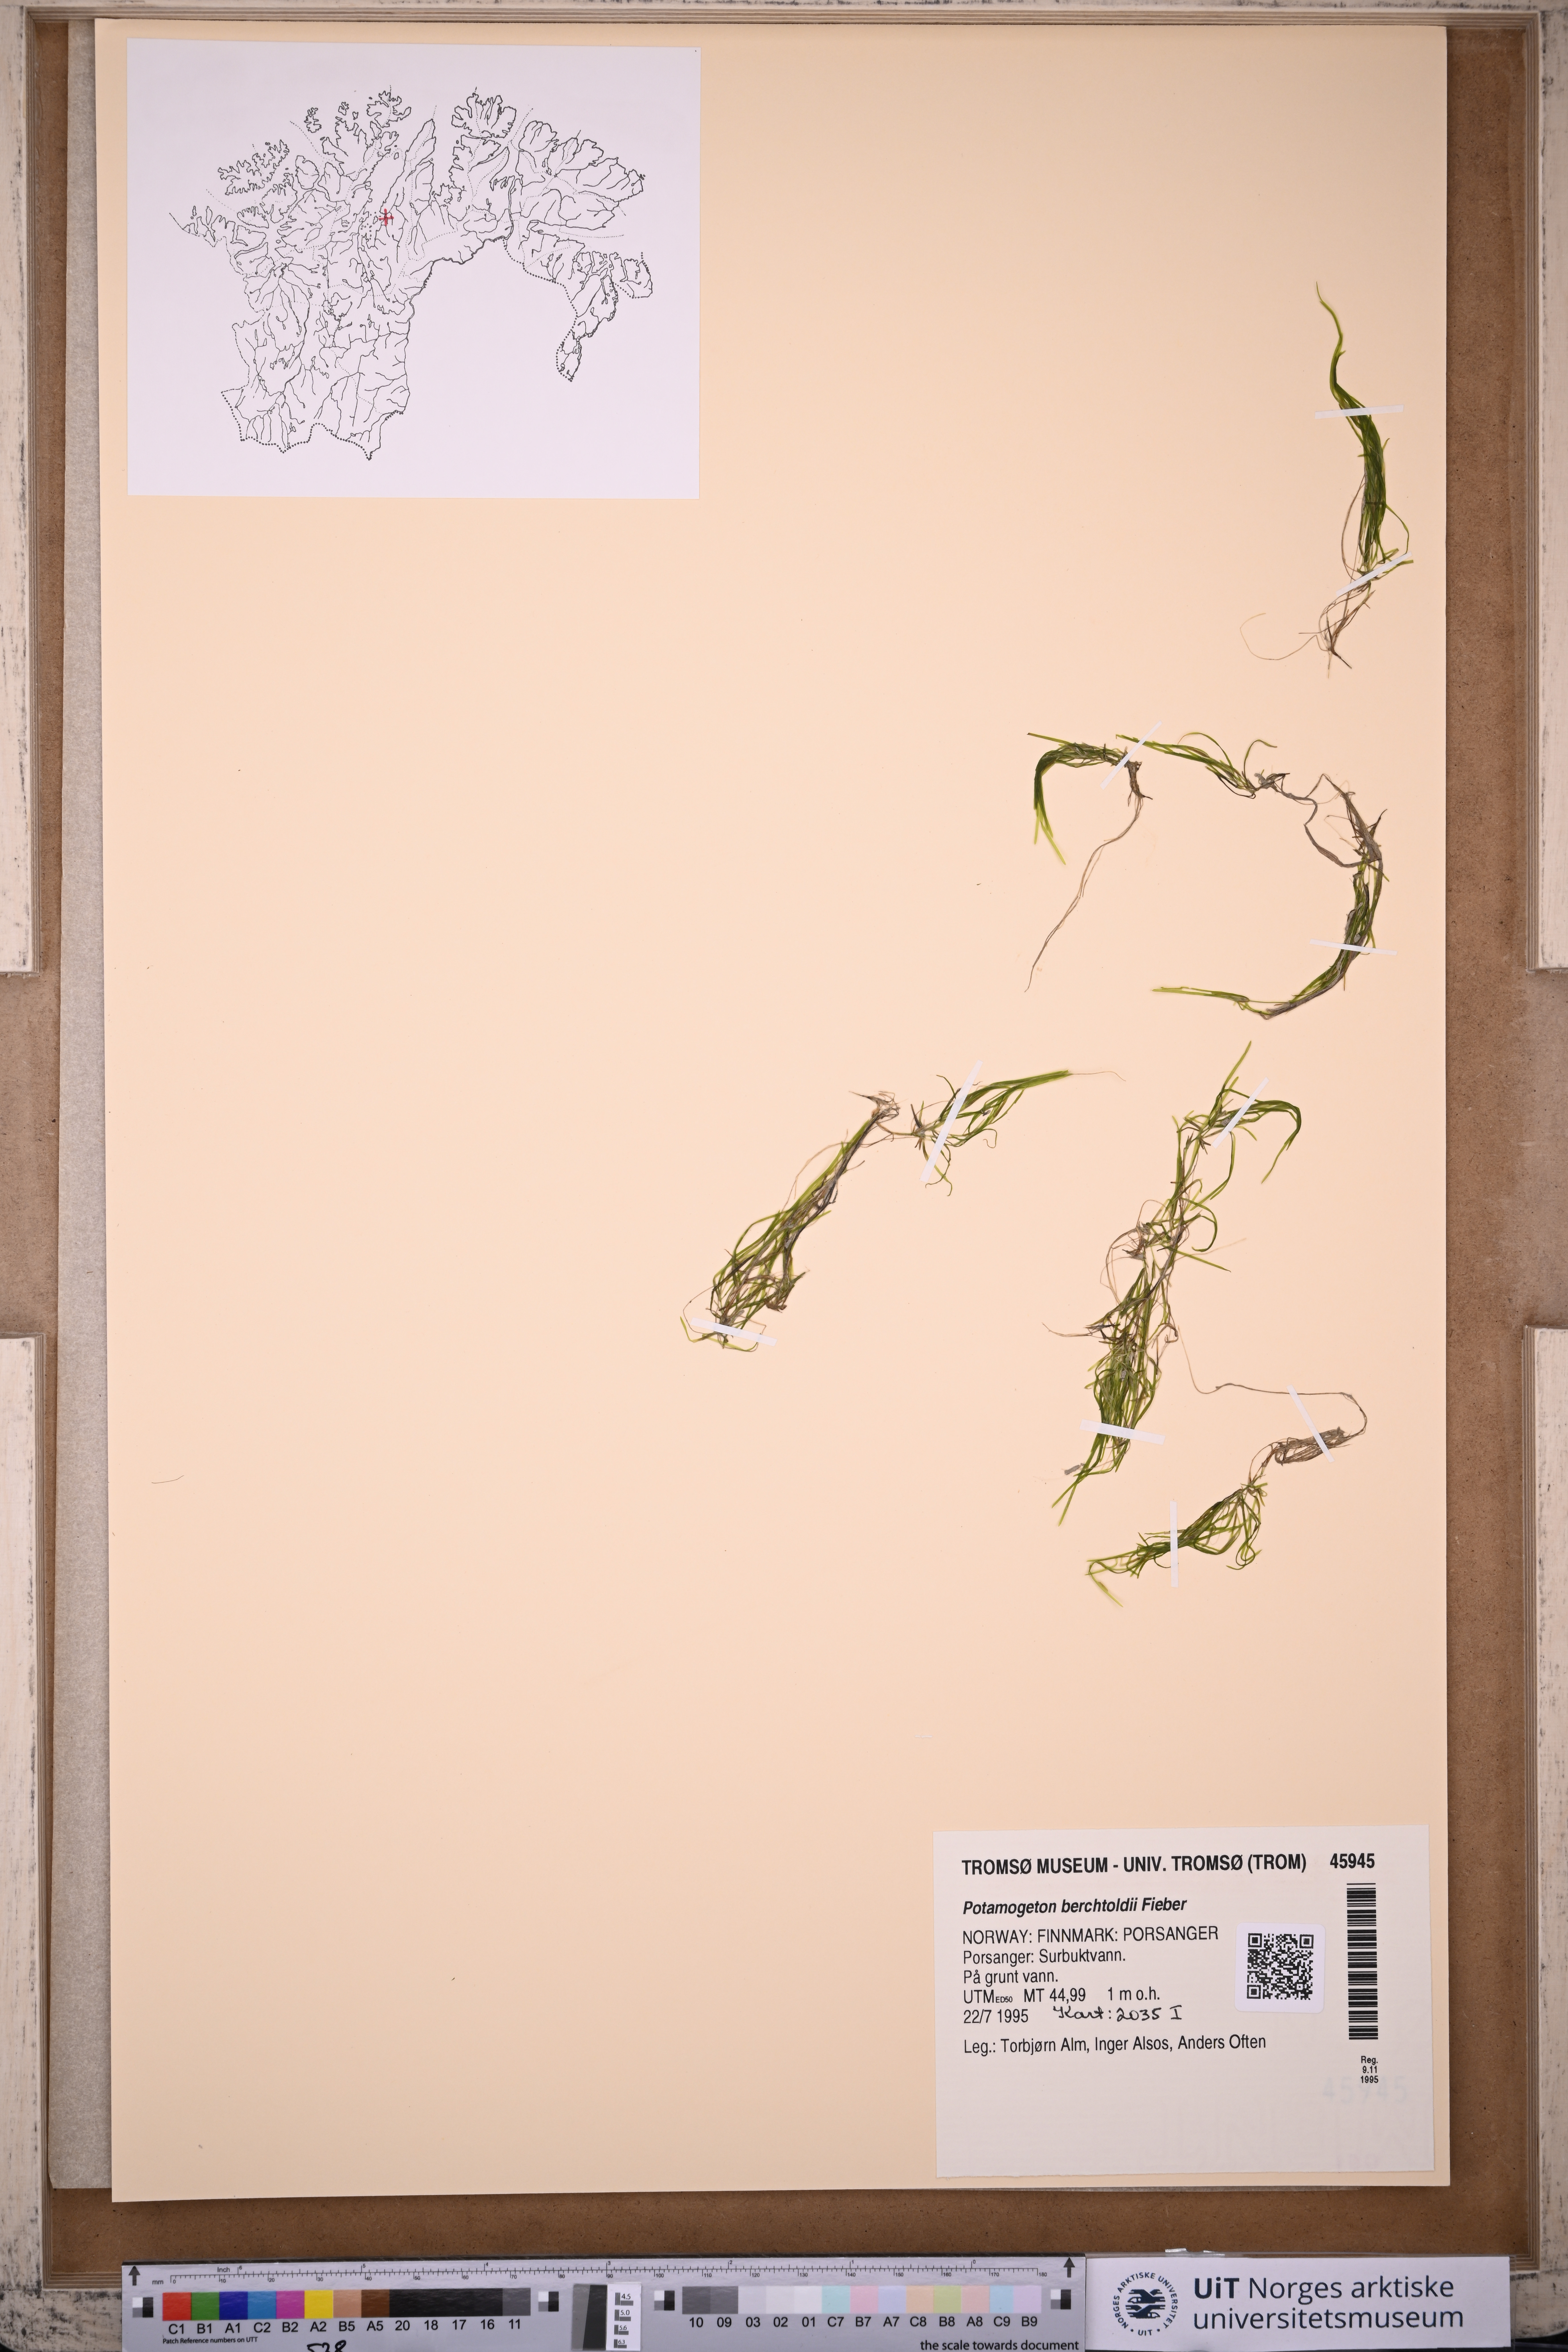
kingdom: Plantae
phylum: Tracheophyta
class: Liliopsida
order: Alismatales
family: Potamogetonaceae
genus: Potamogeton
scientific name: Potamogeton berchtoldii
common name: Small pondweed
